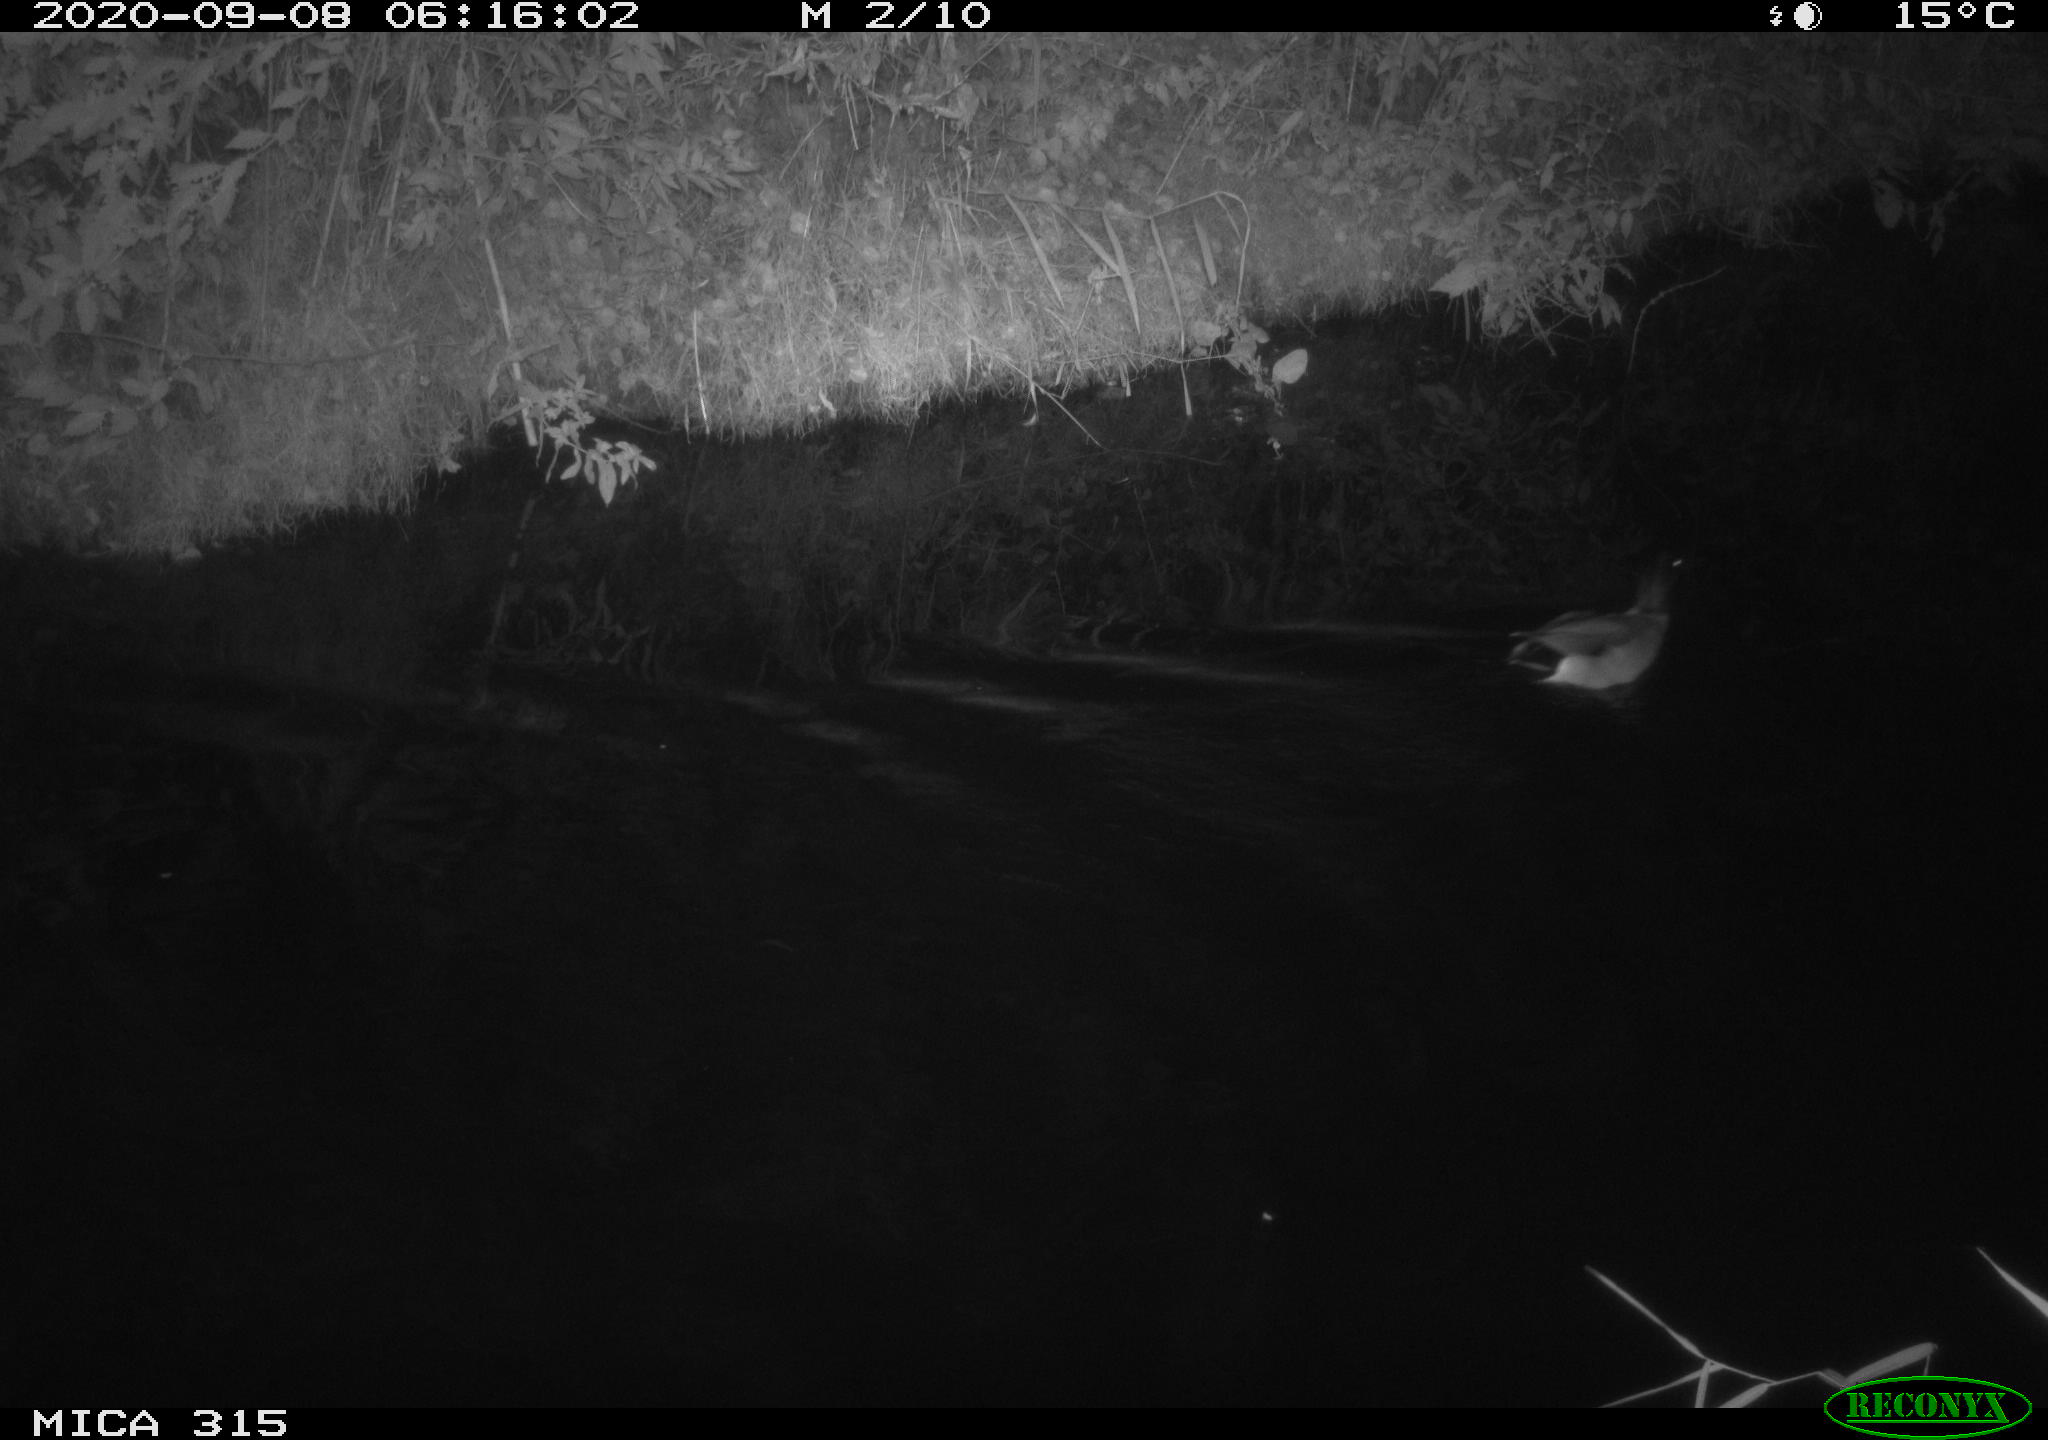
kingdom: Animalia
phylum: Chordata
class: Aves
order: Anseriformes
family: Anatidae
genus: Anas
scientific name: Anas platyrhynchos
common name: Mallard
